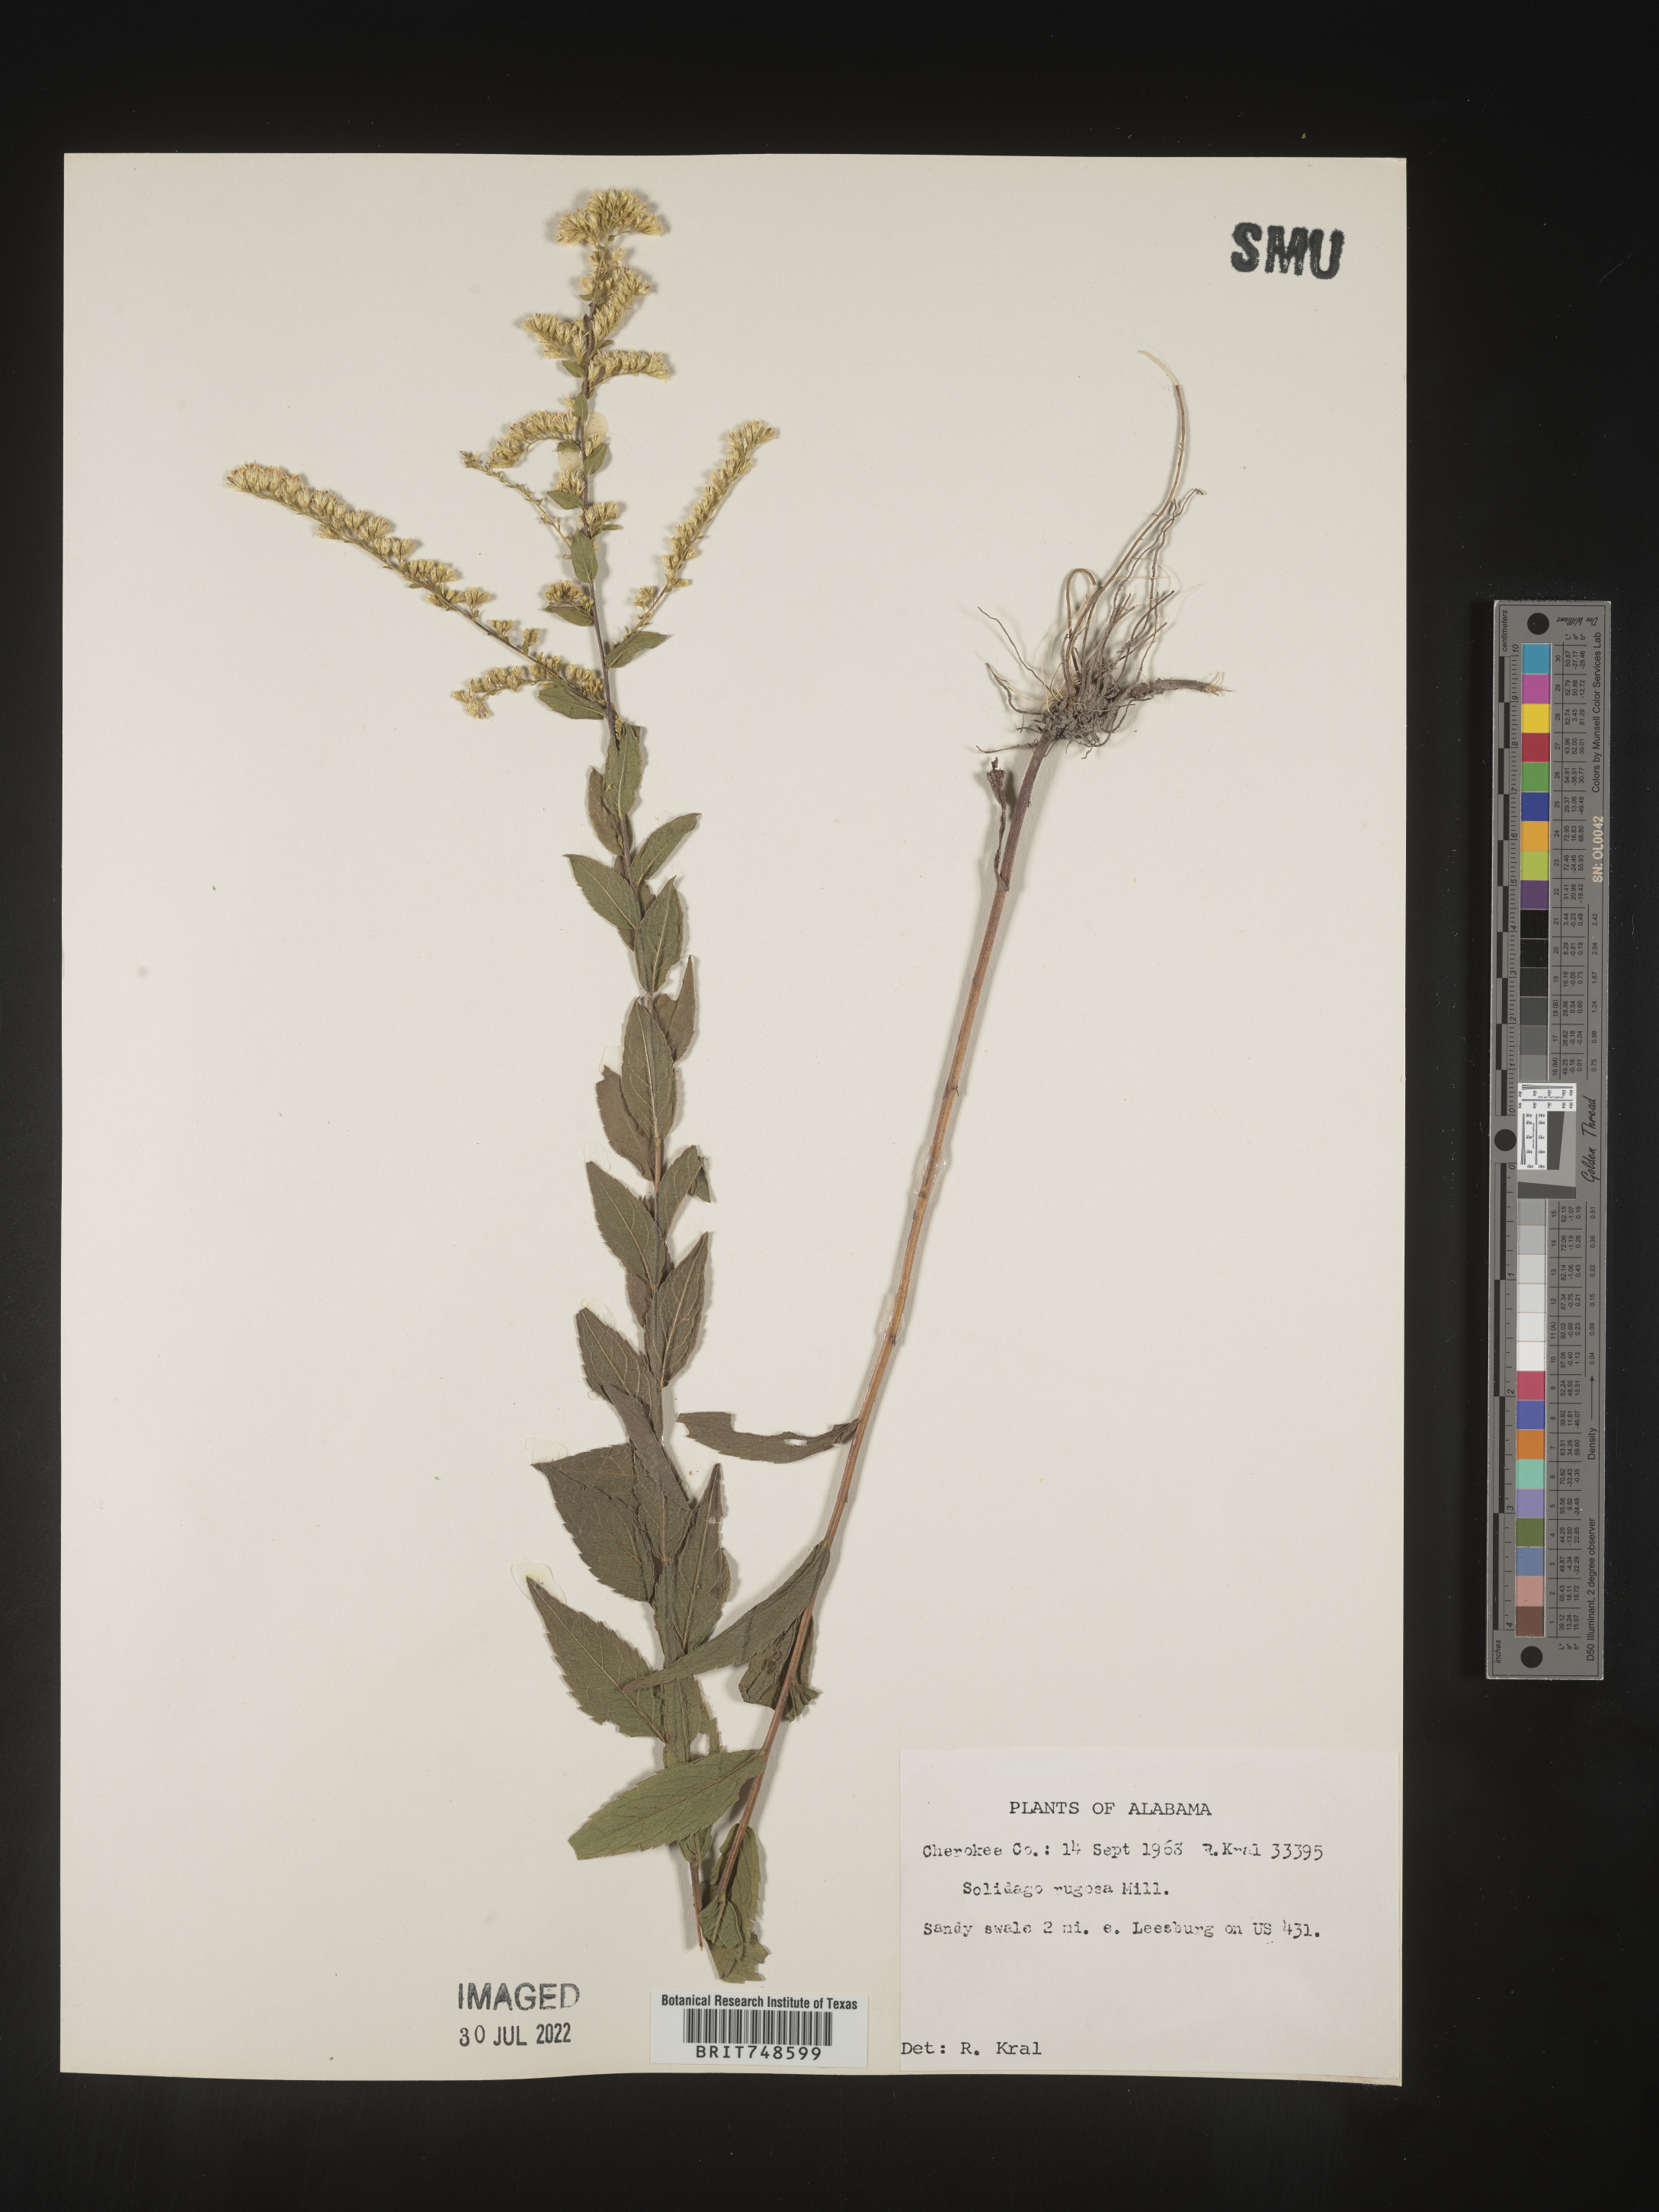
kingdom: Plantae
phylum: Tracheophyta
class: Magnoliopsida
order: Asterales
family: Asteraceae
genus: Solidago
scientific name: Solidago rugosa
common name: Rough-stemmed goldenrod
